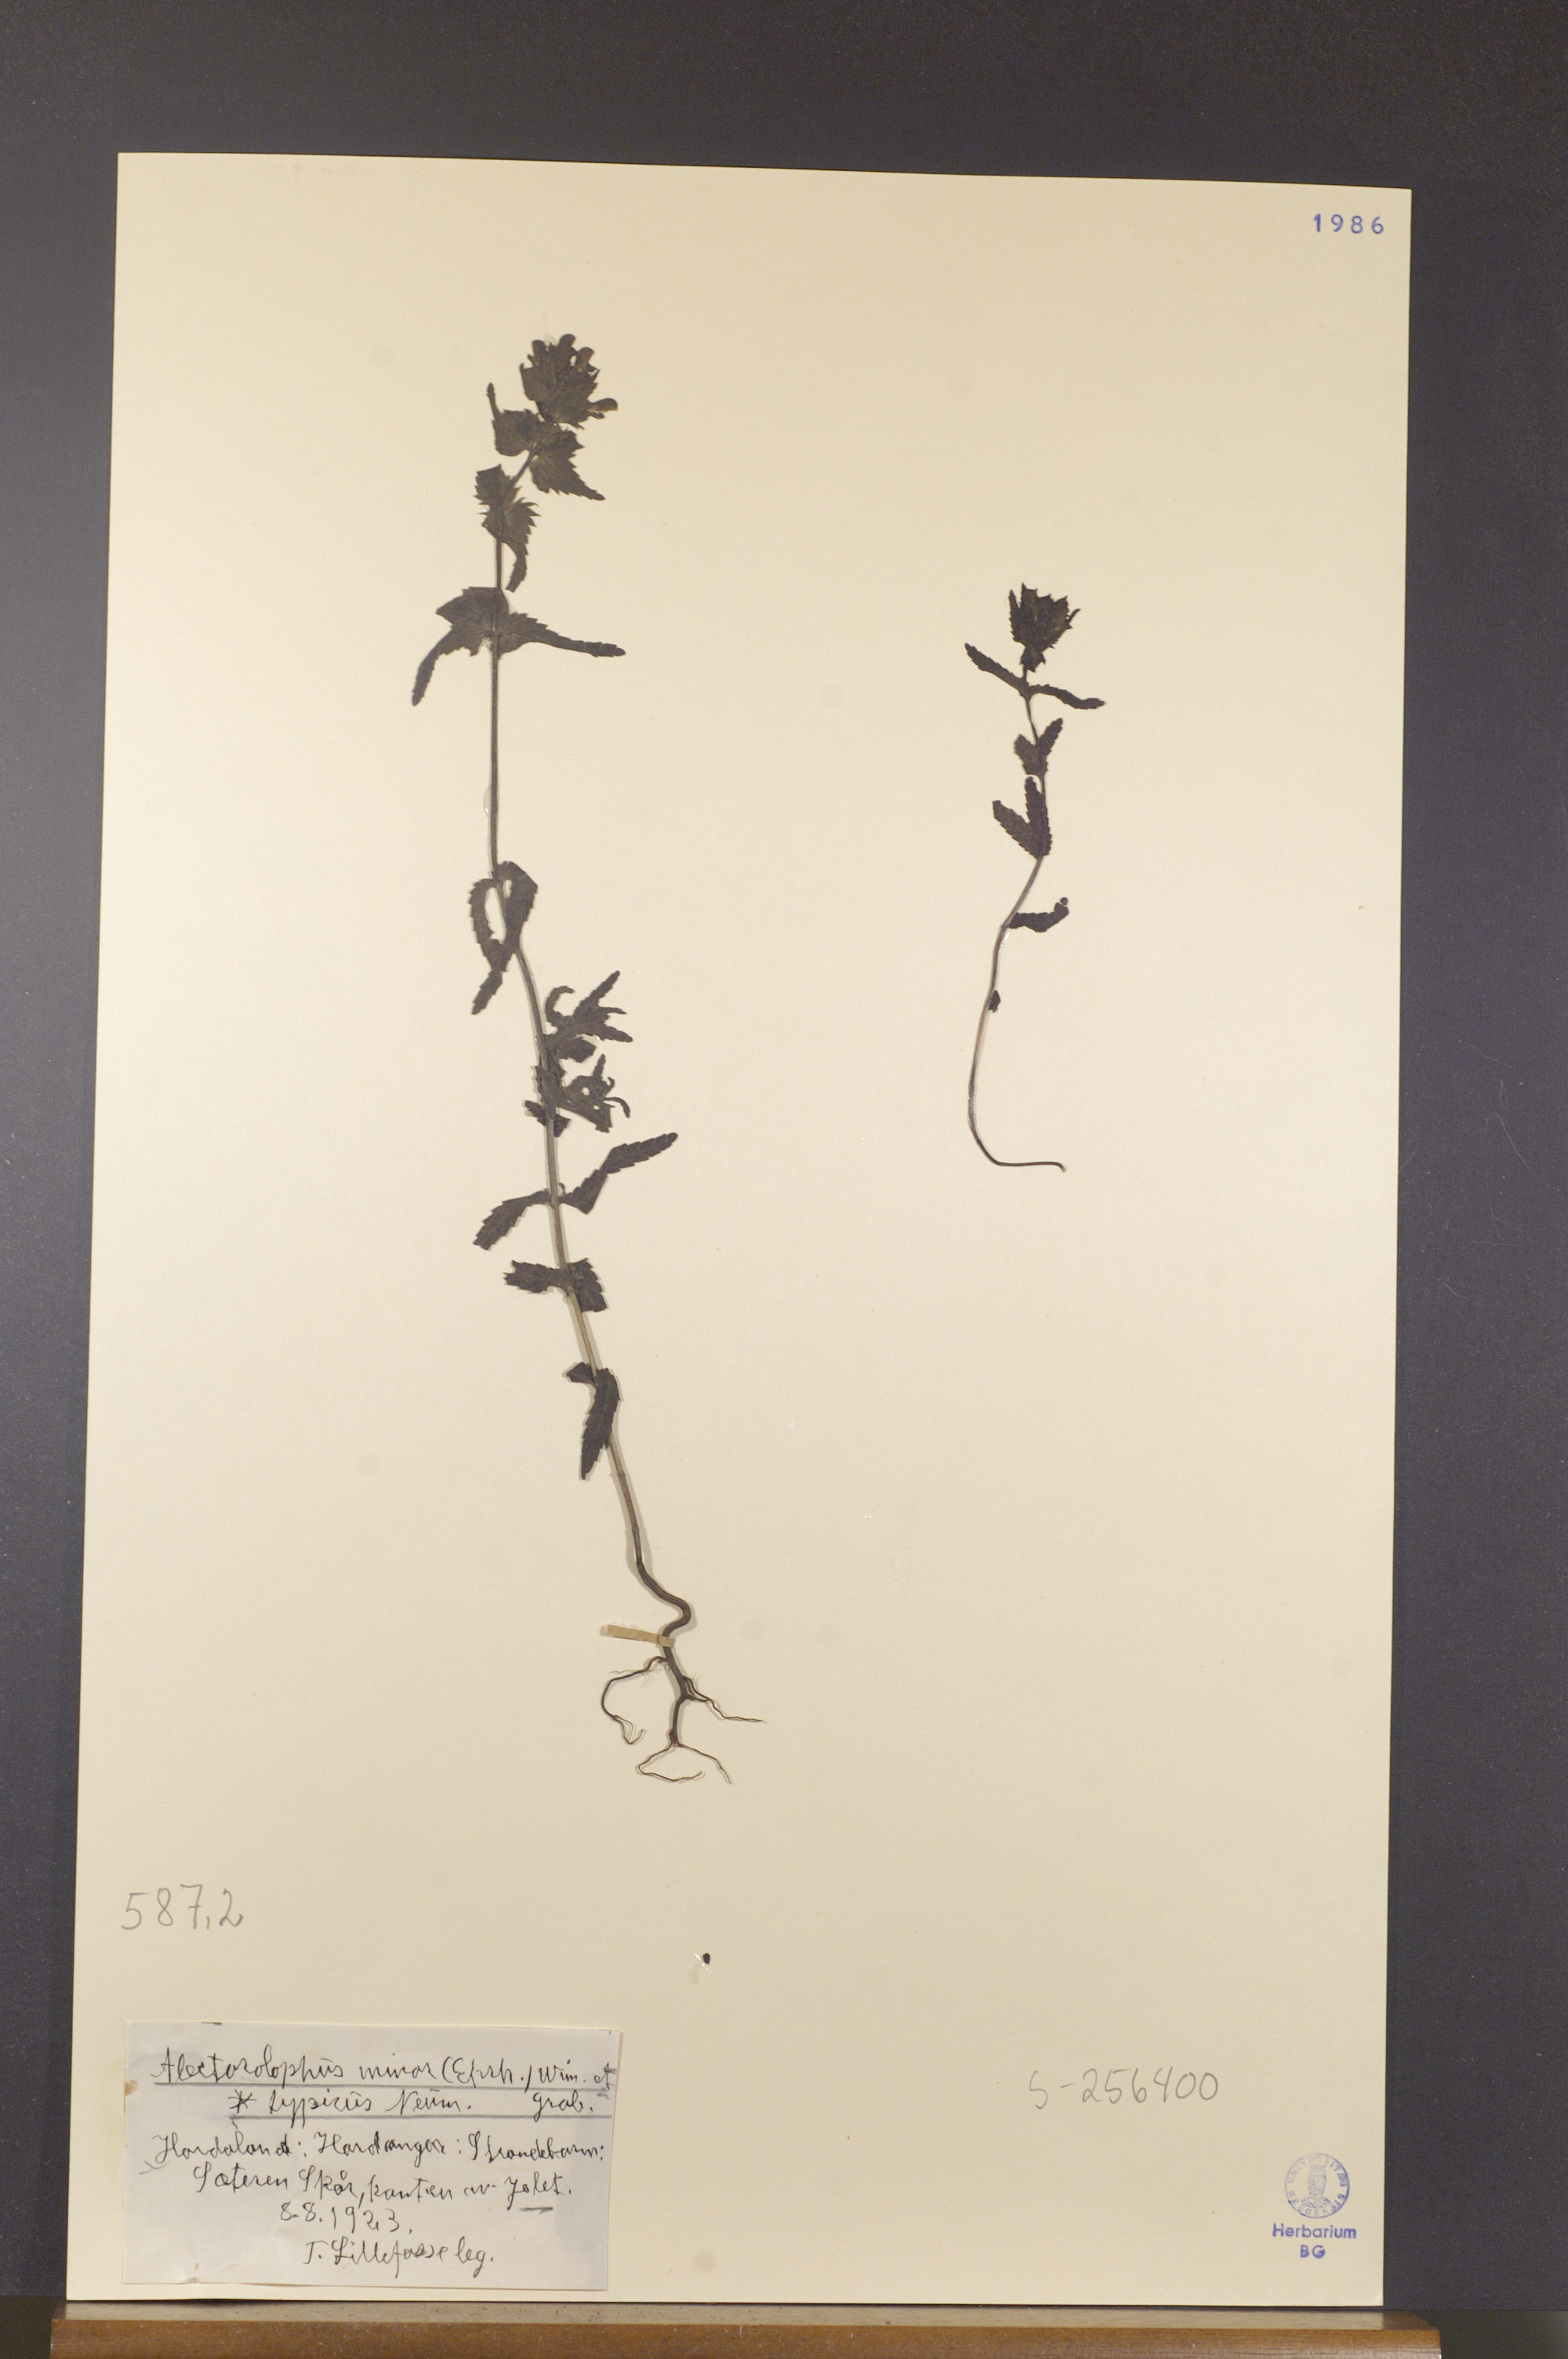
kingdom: Plantae
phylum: Tracheophyta
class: Magnoliopsida
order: Lamiales
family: Orobanchaceae
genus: Rhinanthus
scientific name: Rhinanthus minor
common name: Yellow-rattle
